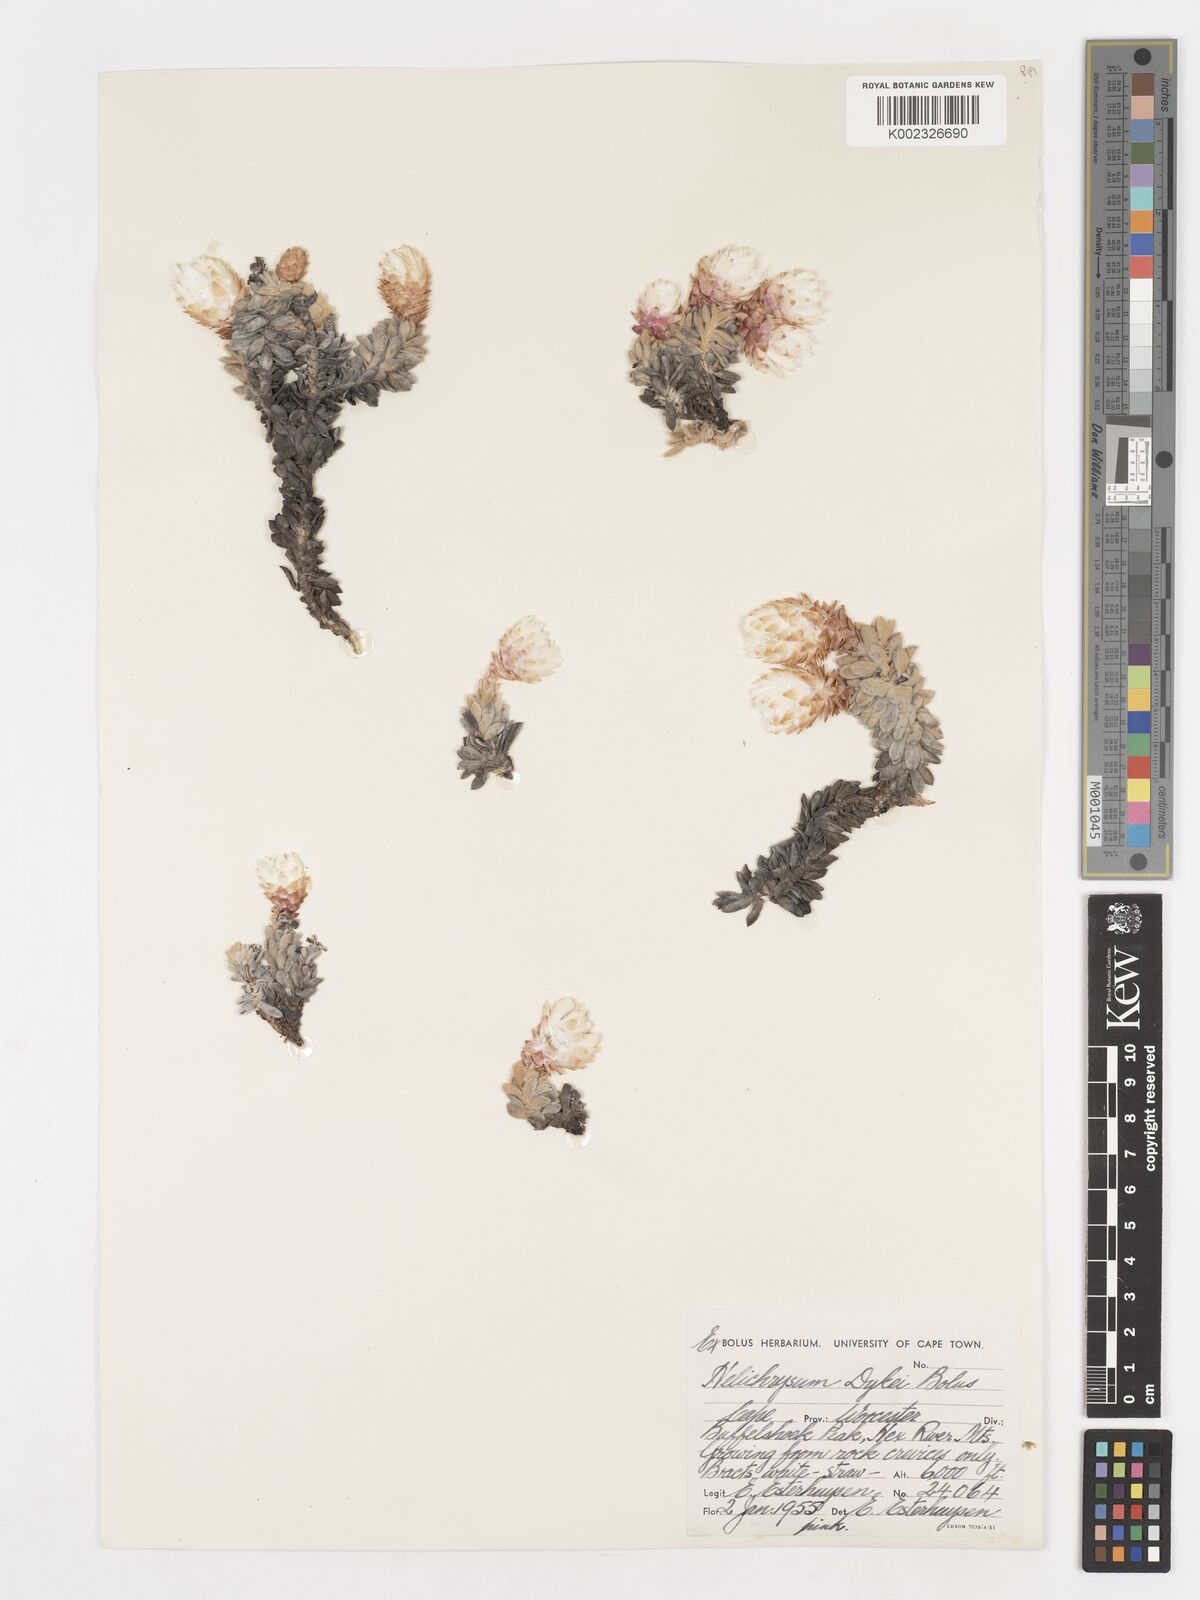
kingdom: Plantae
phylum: Tracheophyta
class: Magnoliopsida
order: Asterales
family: Asteraceae
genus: Syncarpha
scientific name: Syncarpha dykei
